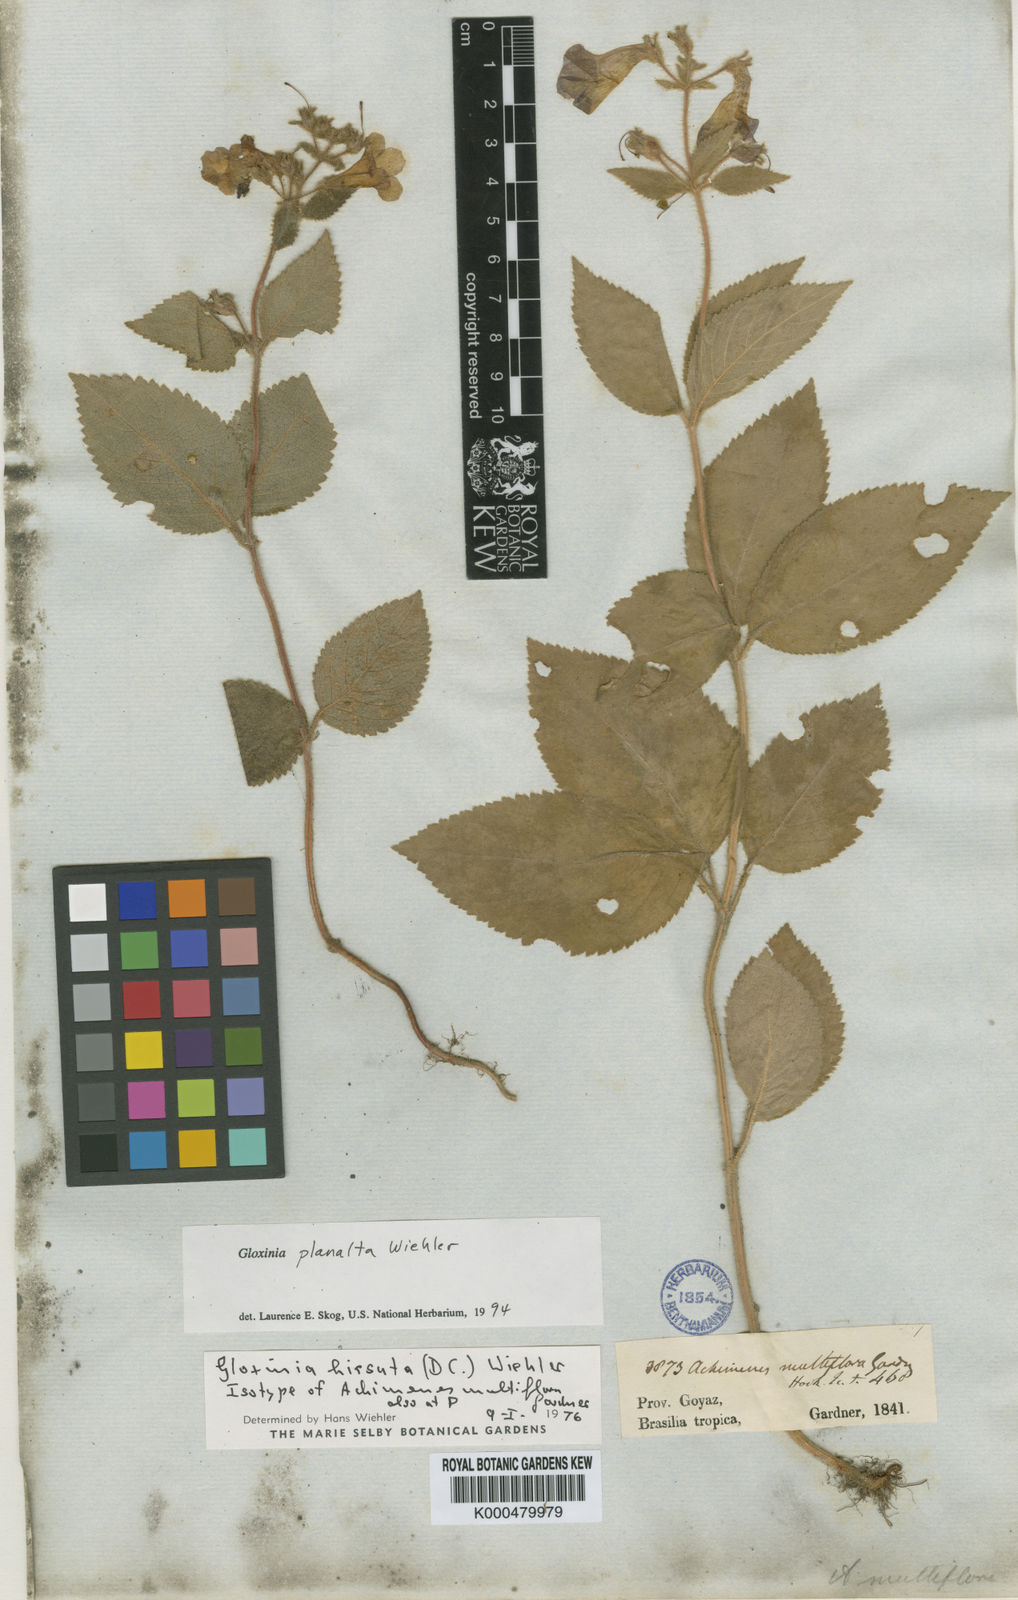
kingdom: Plantae
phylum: Tracheophyta
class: Magnoliopsida
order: Lamiales
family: Gesneriaceae
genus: Mandirola
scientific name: Mandirola hirsuta
